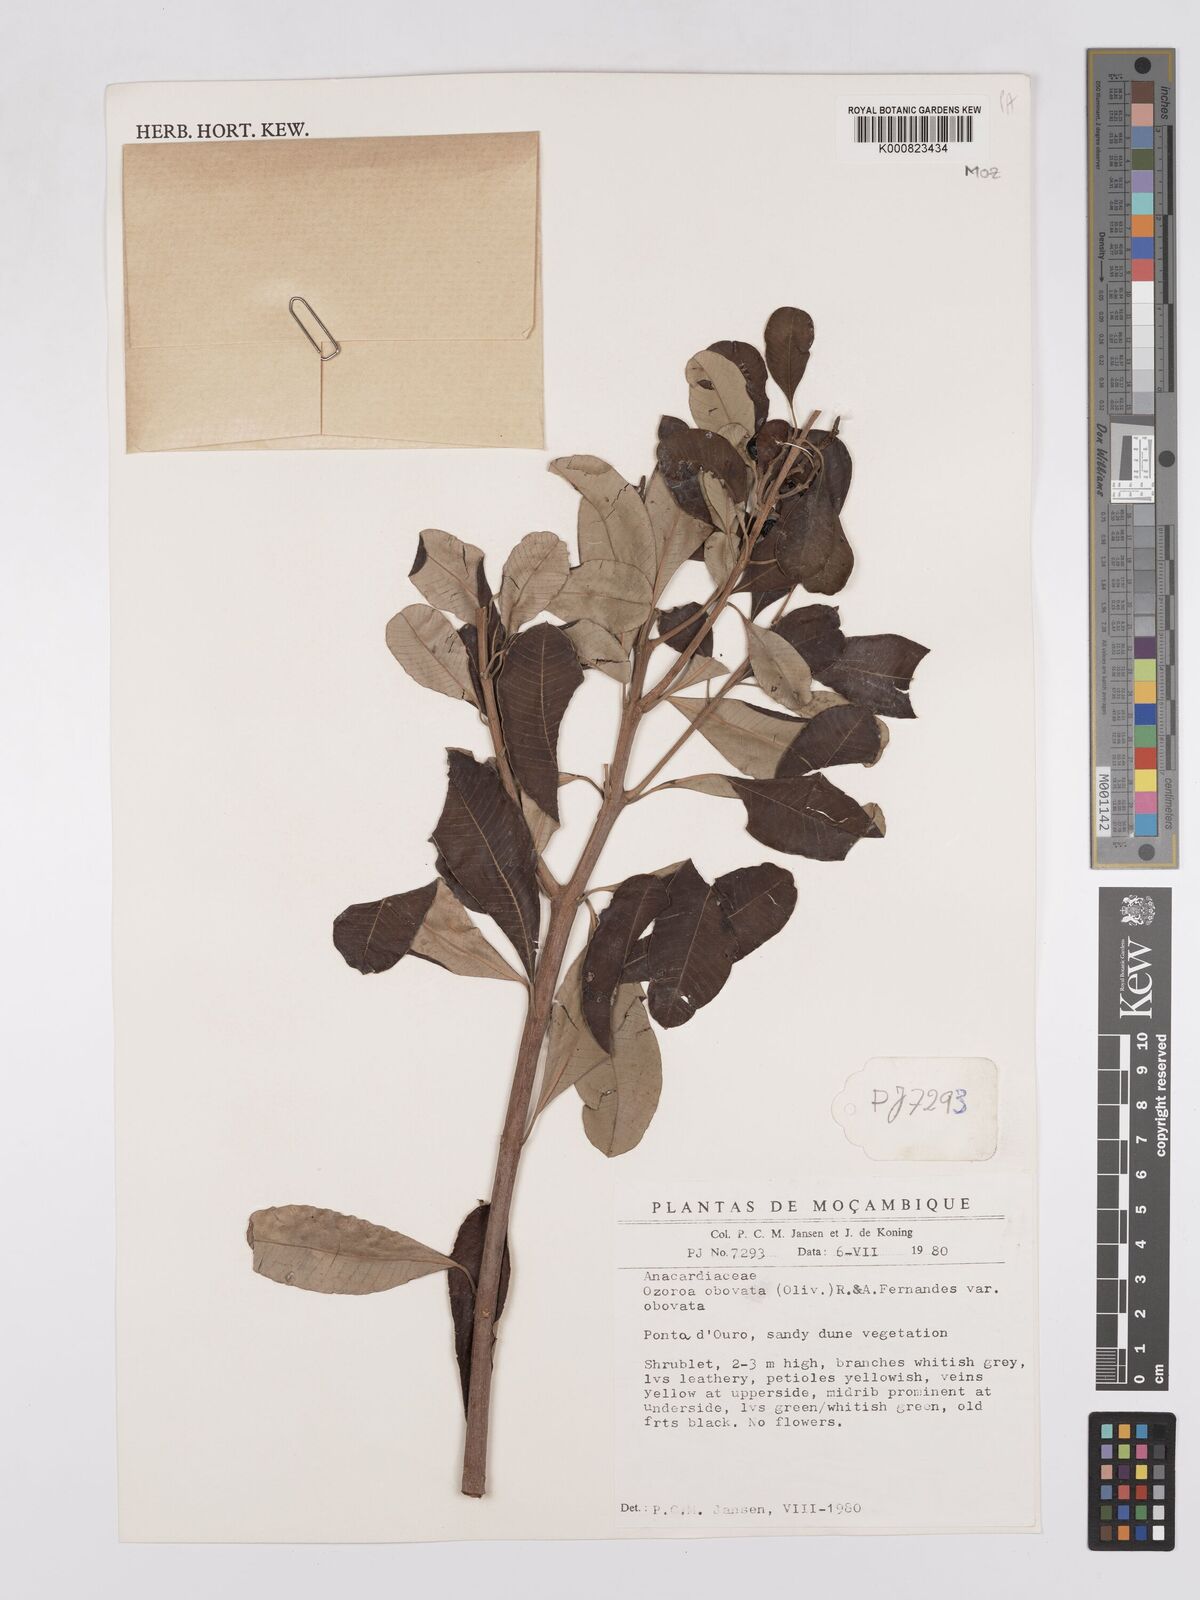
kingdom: Plantae
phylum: Tracheophyta
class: Magnoliopsida
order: Sapindales
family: Anacardiaceae
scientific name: Anacardiaceae
